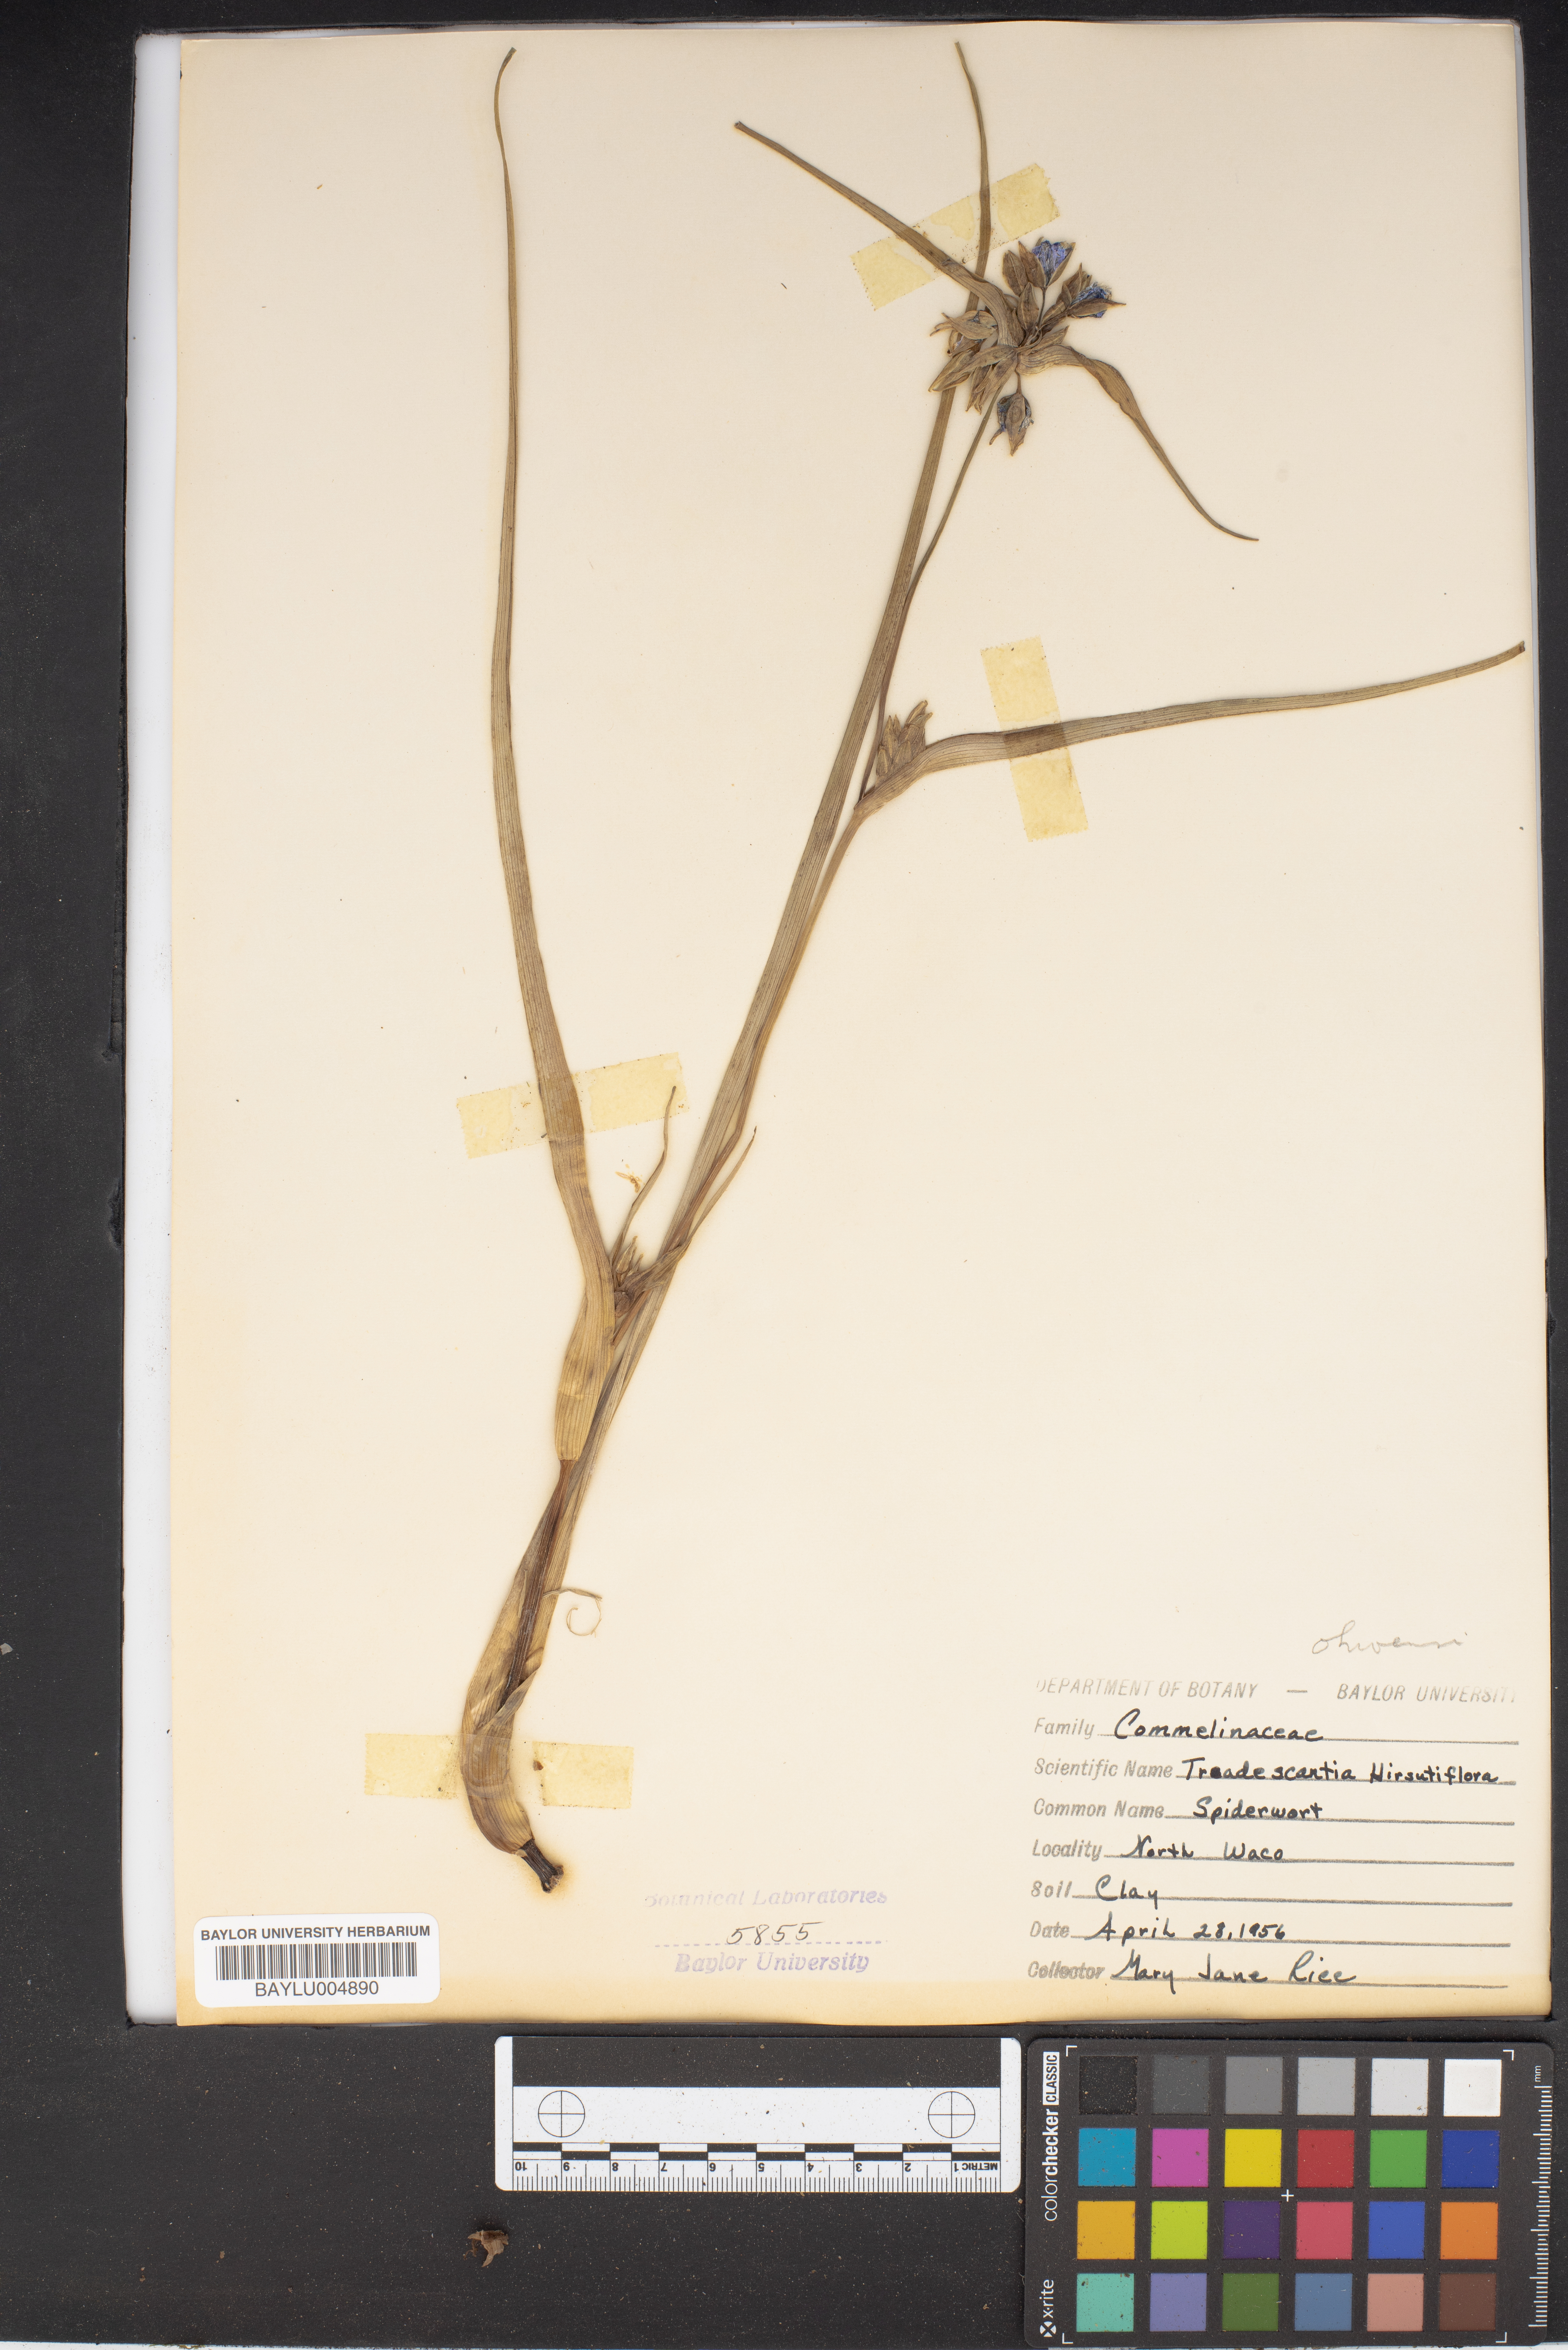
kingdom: Plantae
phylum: Tracheophyta
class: Liliopsida
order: Commelinales
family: Commelinaceae
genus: Tradescantia
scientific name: Tradescantia hirsutiflora
